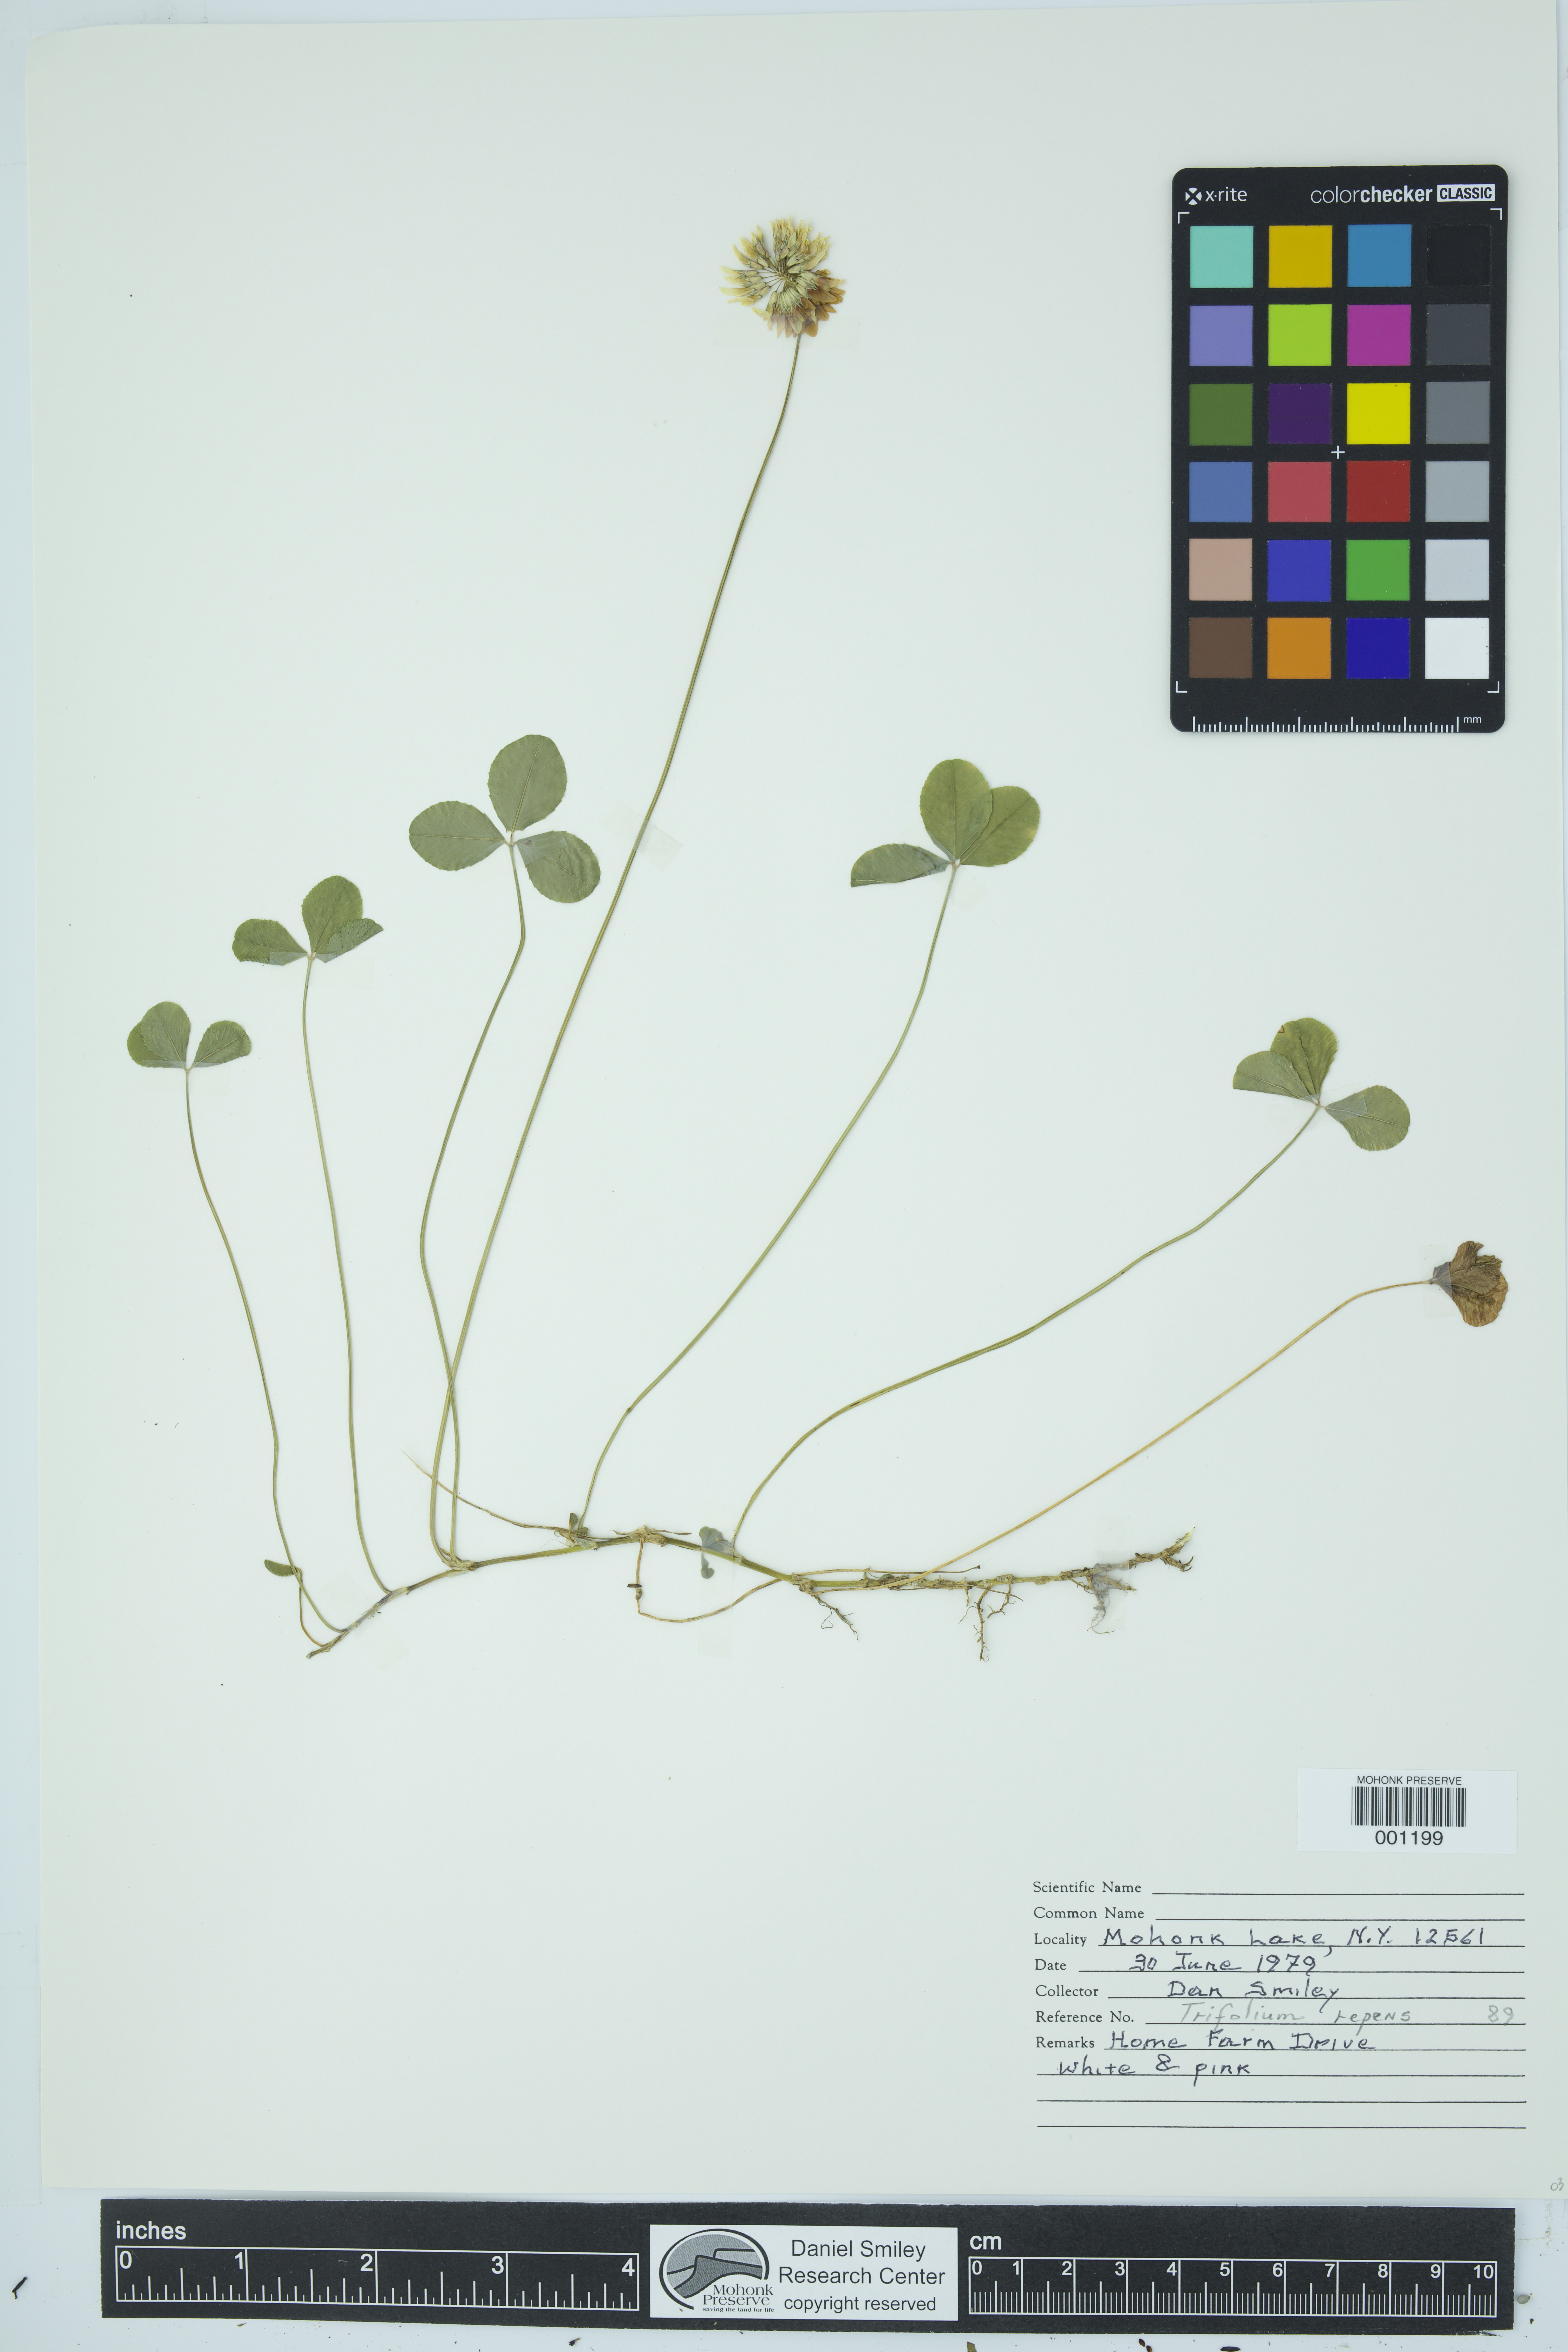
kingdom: Plantae
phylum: Tracheophyta
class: Magnoliopsida
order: Fabales
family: Fabaceae
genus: Trifolium
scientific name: Trifolium repens
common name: White clover
